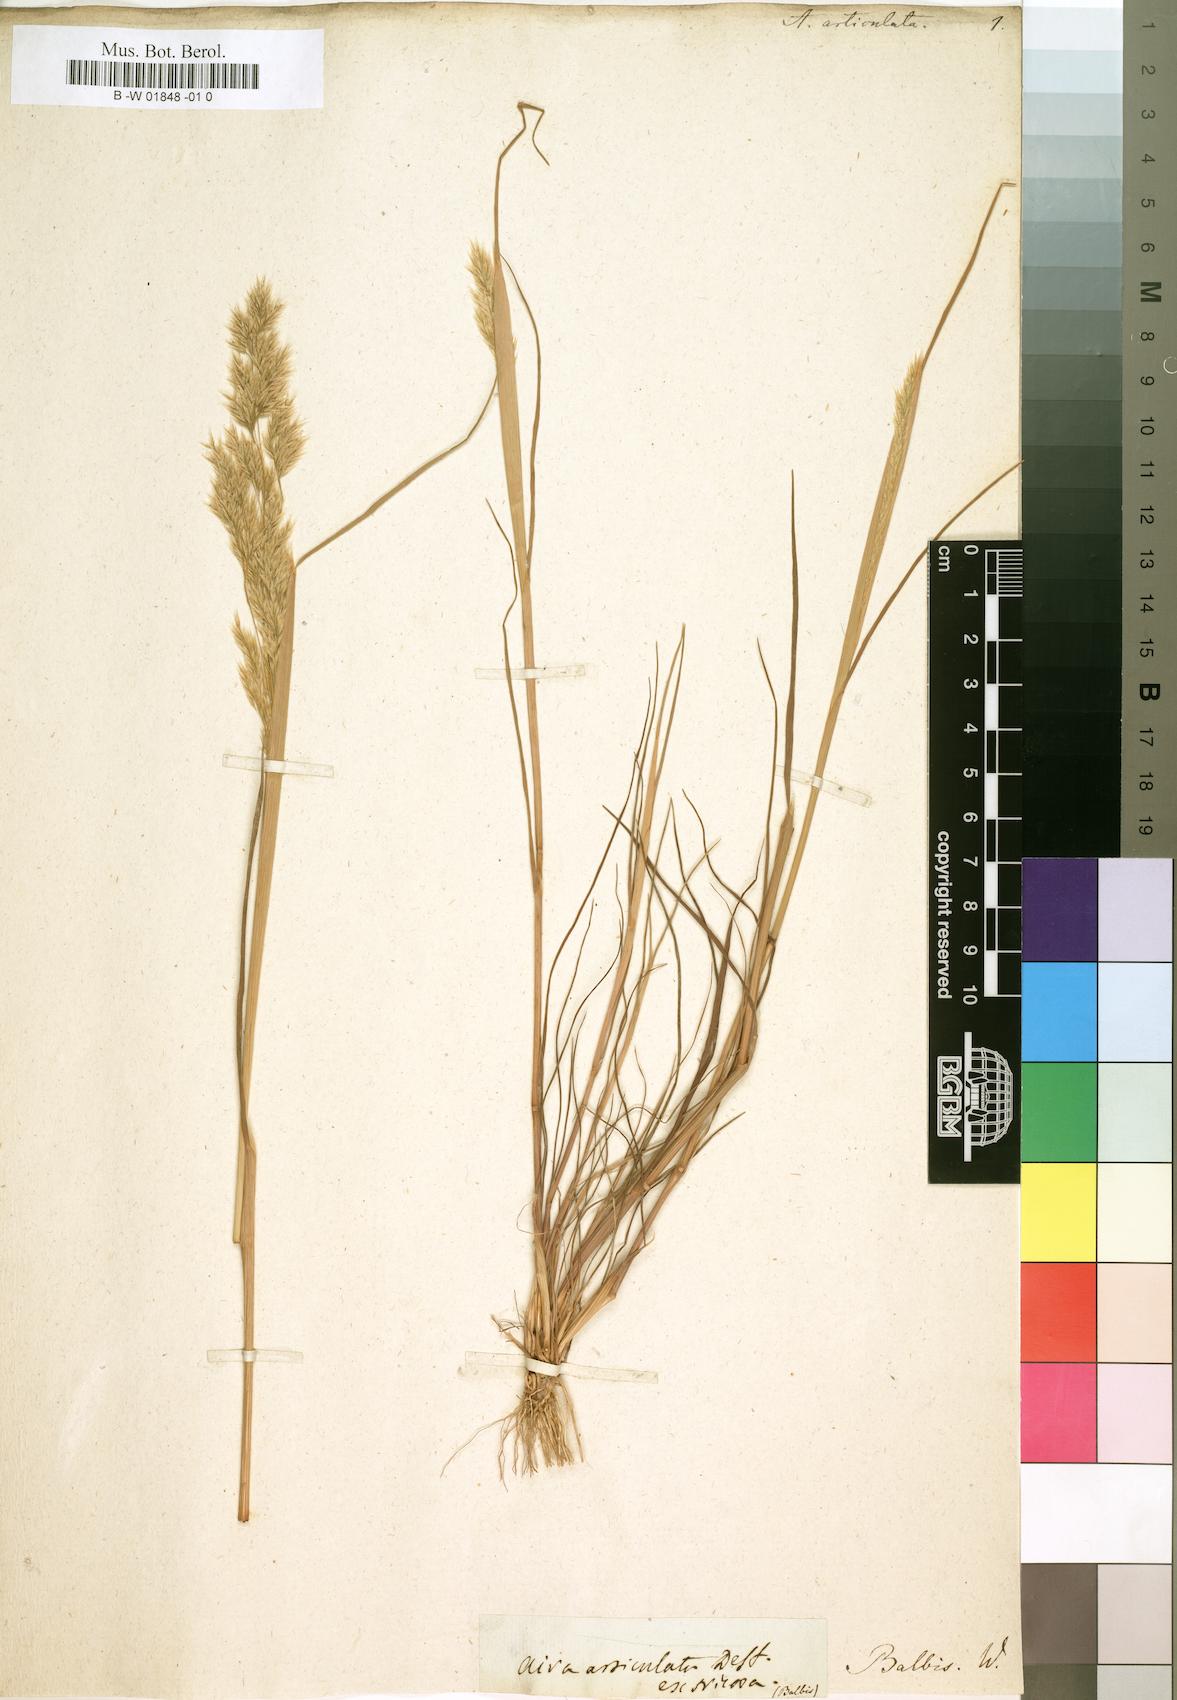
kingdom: Plantae
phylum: Tracheophyta
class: Liliopsida
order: Poales
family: Poaceae
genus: Corynephorus
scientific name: Corynephorus articulatus
